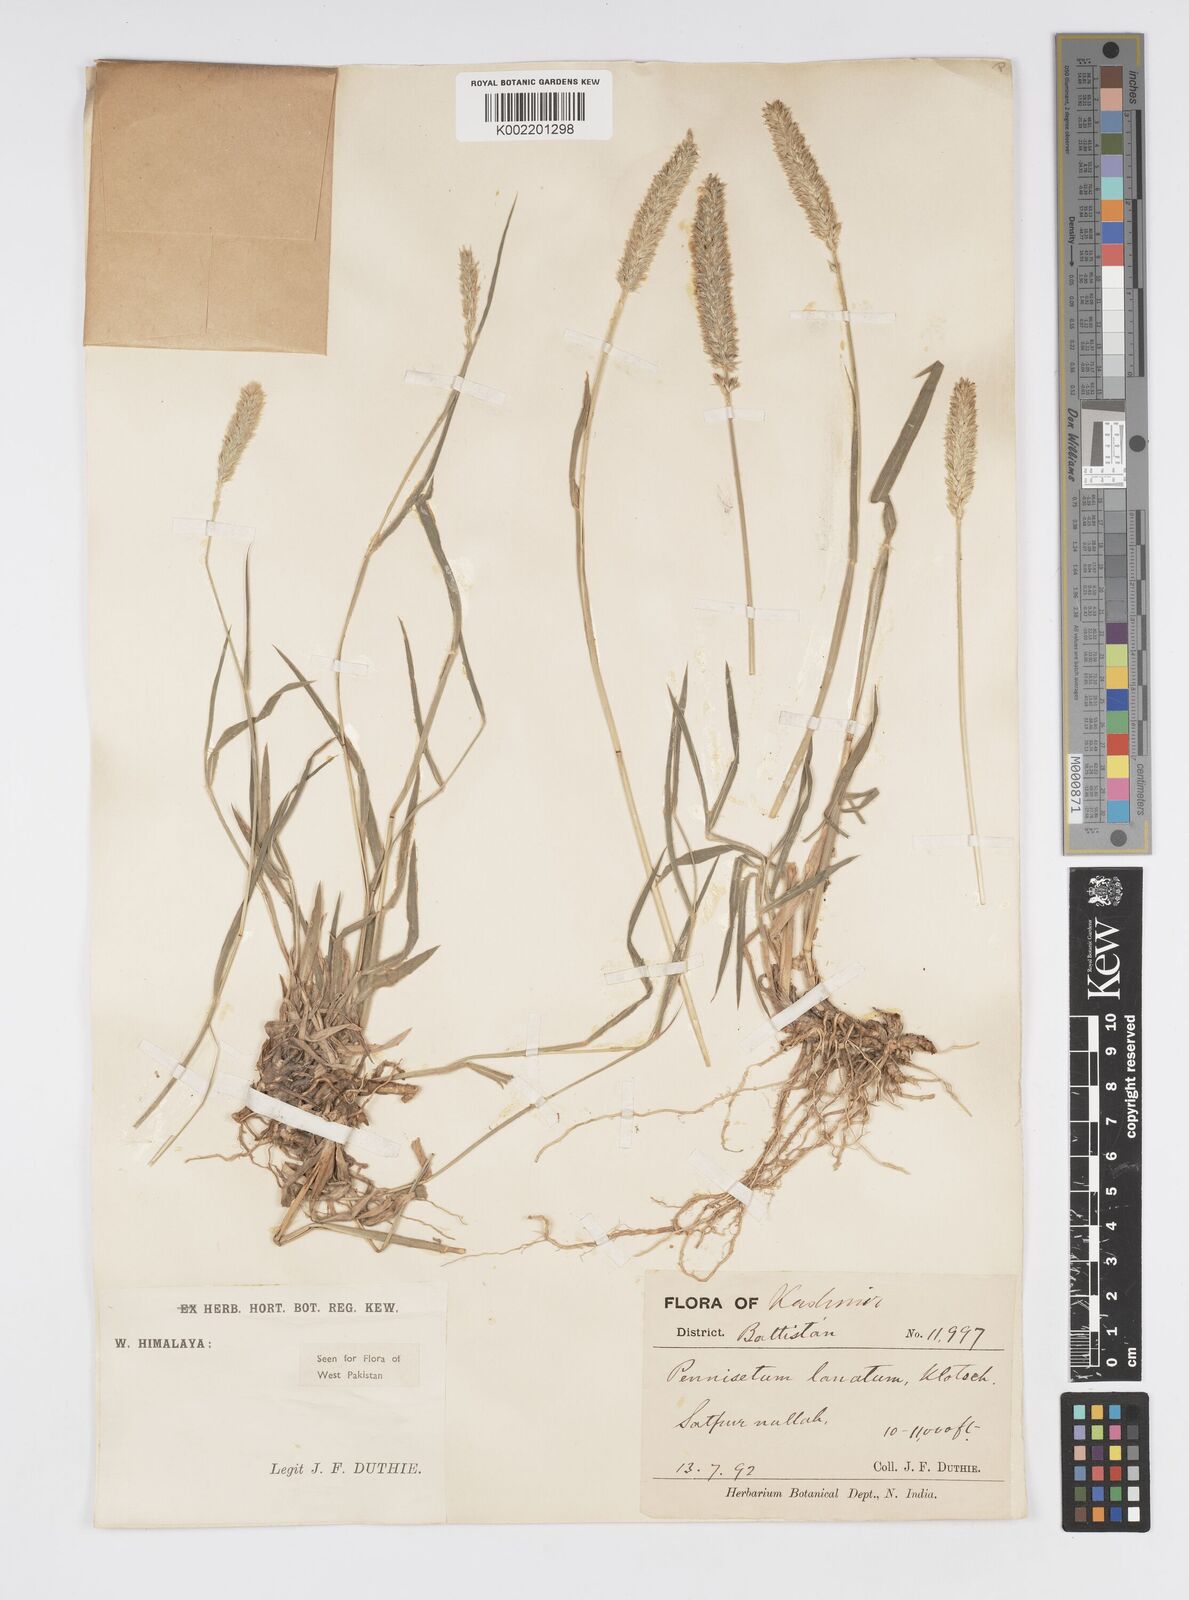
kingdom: Plantae
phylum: Tracheophyta
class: Liliopsida
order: Poales
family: Poaceae
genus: Cenchrus
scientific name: Cenchrus lanatus
